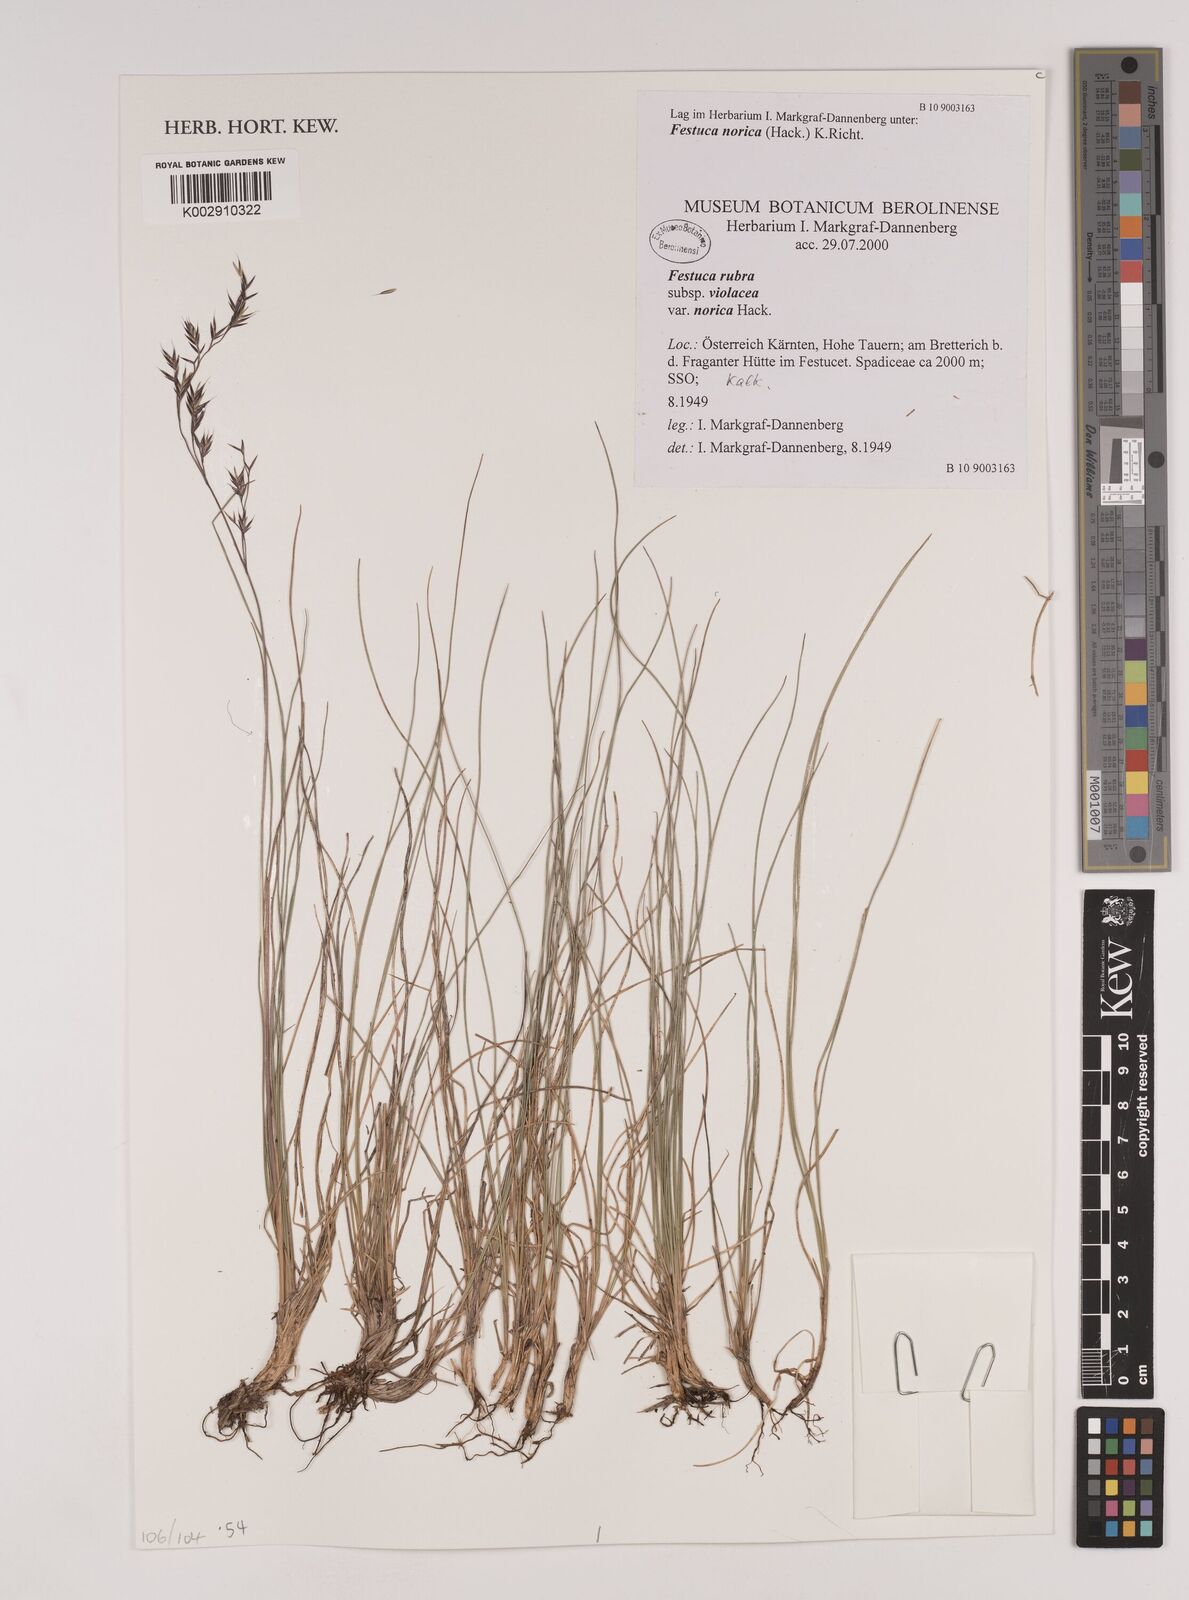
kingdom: Plantae
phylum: Tracheophyta
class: Liliopsida
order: Poales
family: Poaceae
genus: Festuca
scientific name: Festuca norica
